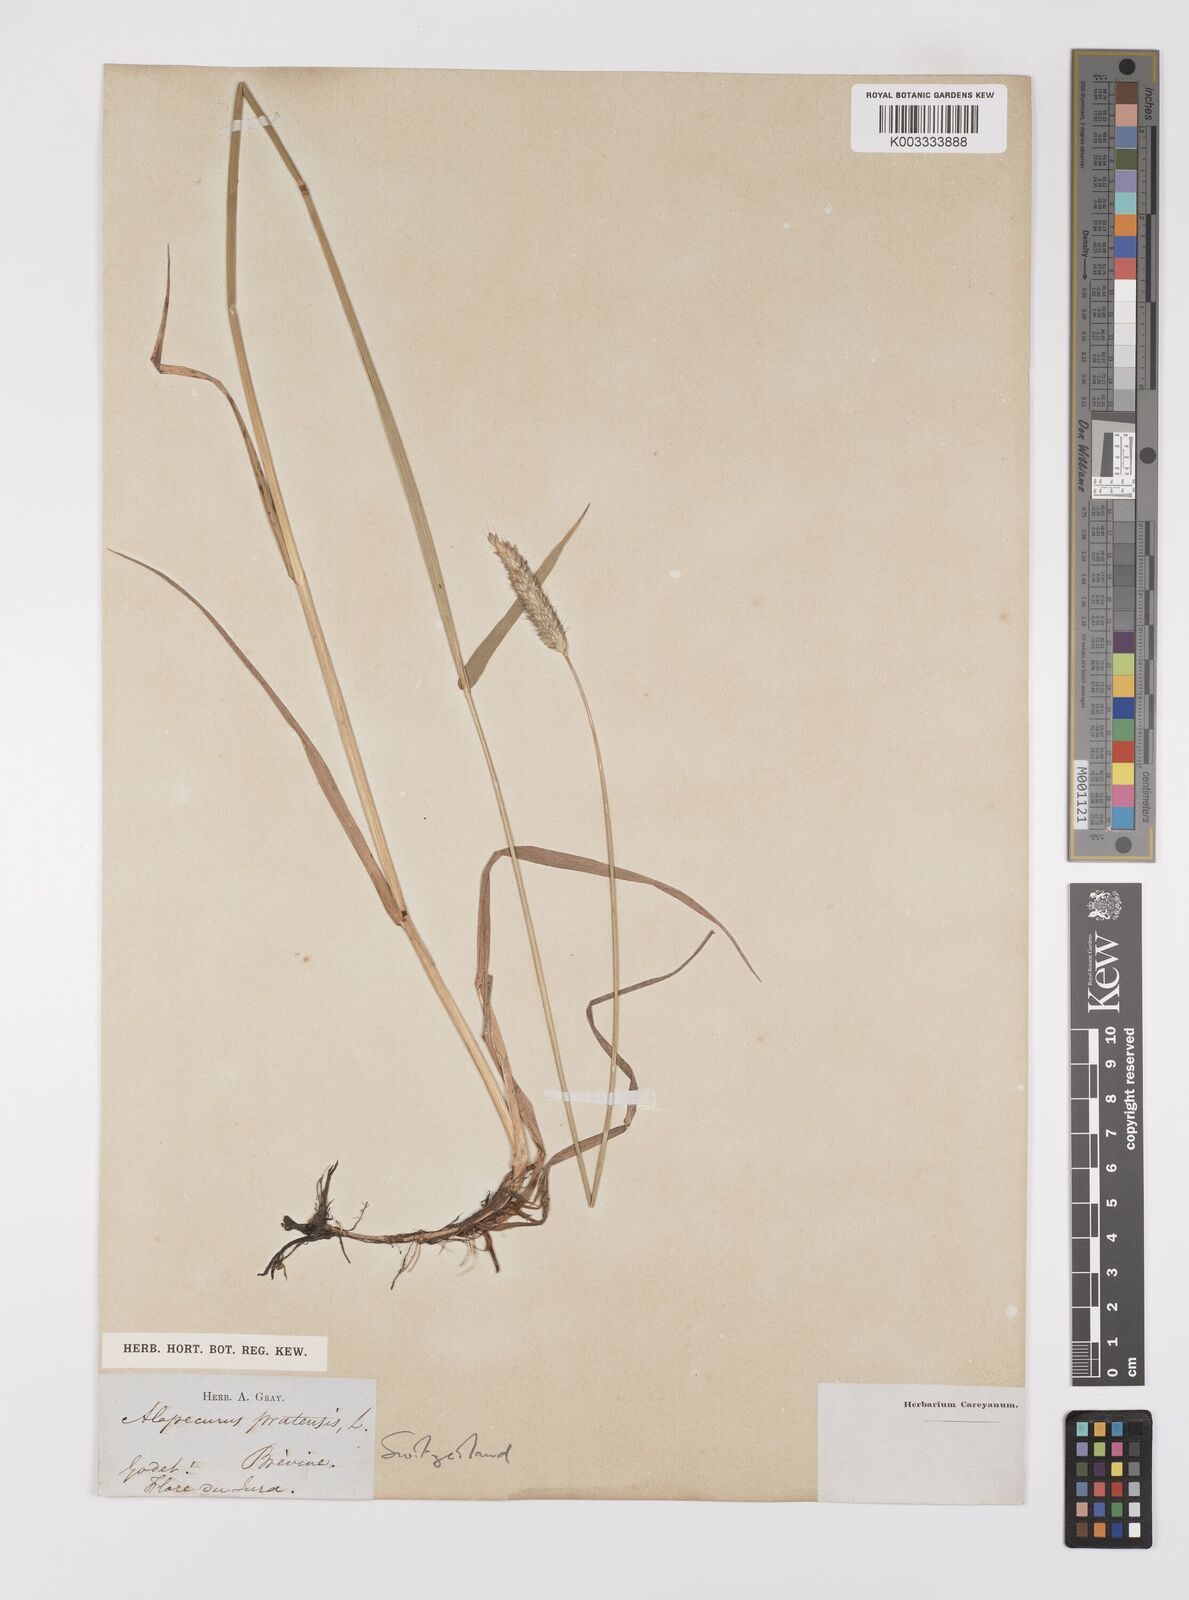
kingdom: Plantae
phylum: Tracheophyta
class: Liliopsida
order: Poales
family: Poaceae
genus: Alopecurus
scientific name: Alopecurus pratensis
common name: Meadow foxtail
